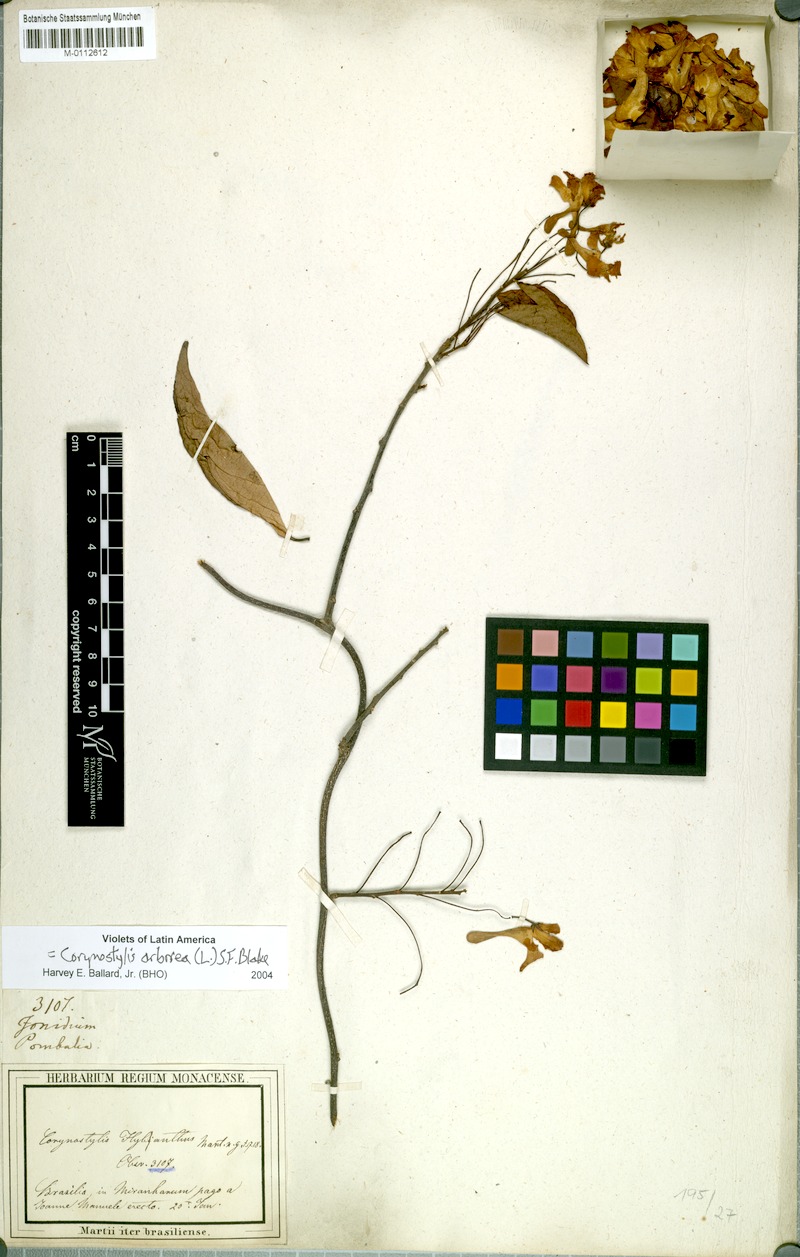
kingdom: Plantae
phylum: Tracheophyta
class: Magnoliopsida
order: Malpighiales
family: Violaceae
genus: Calyptrion
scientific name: Calyptrion arboreum
